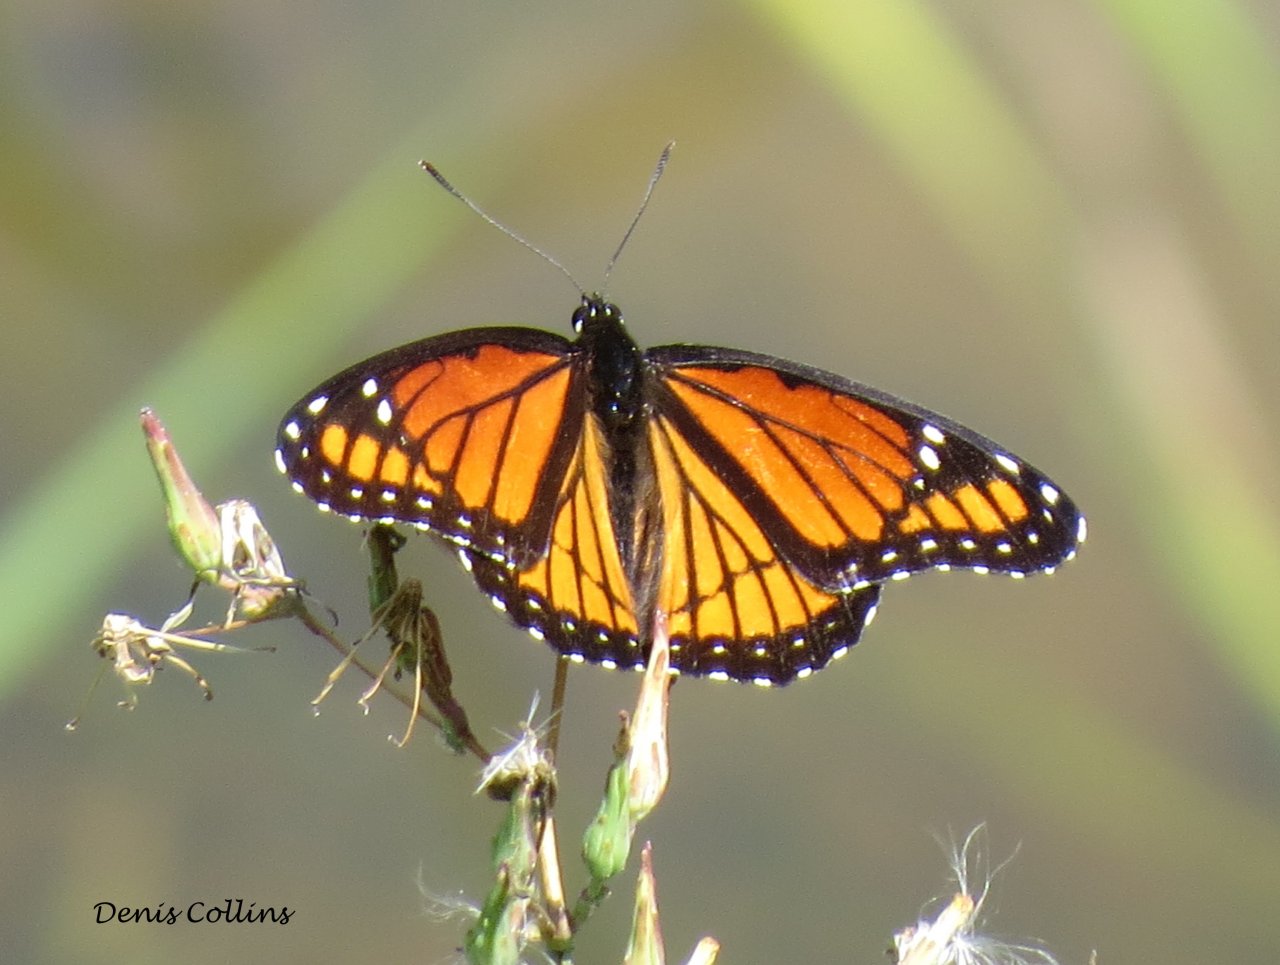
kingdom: Animalia
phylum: Arthropoda
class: Insecta
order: Lepidoptera
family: Nymphalidae
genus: Limenitis
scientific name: Limenitis archippus
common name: Viceroy
